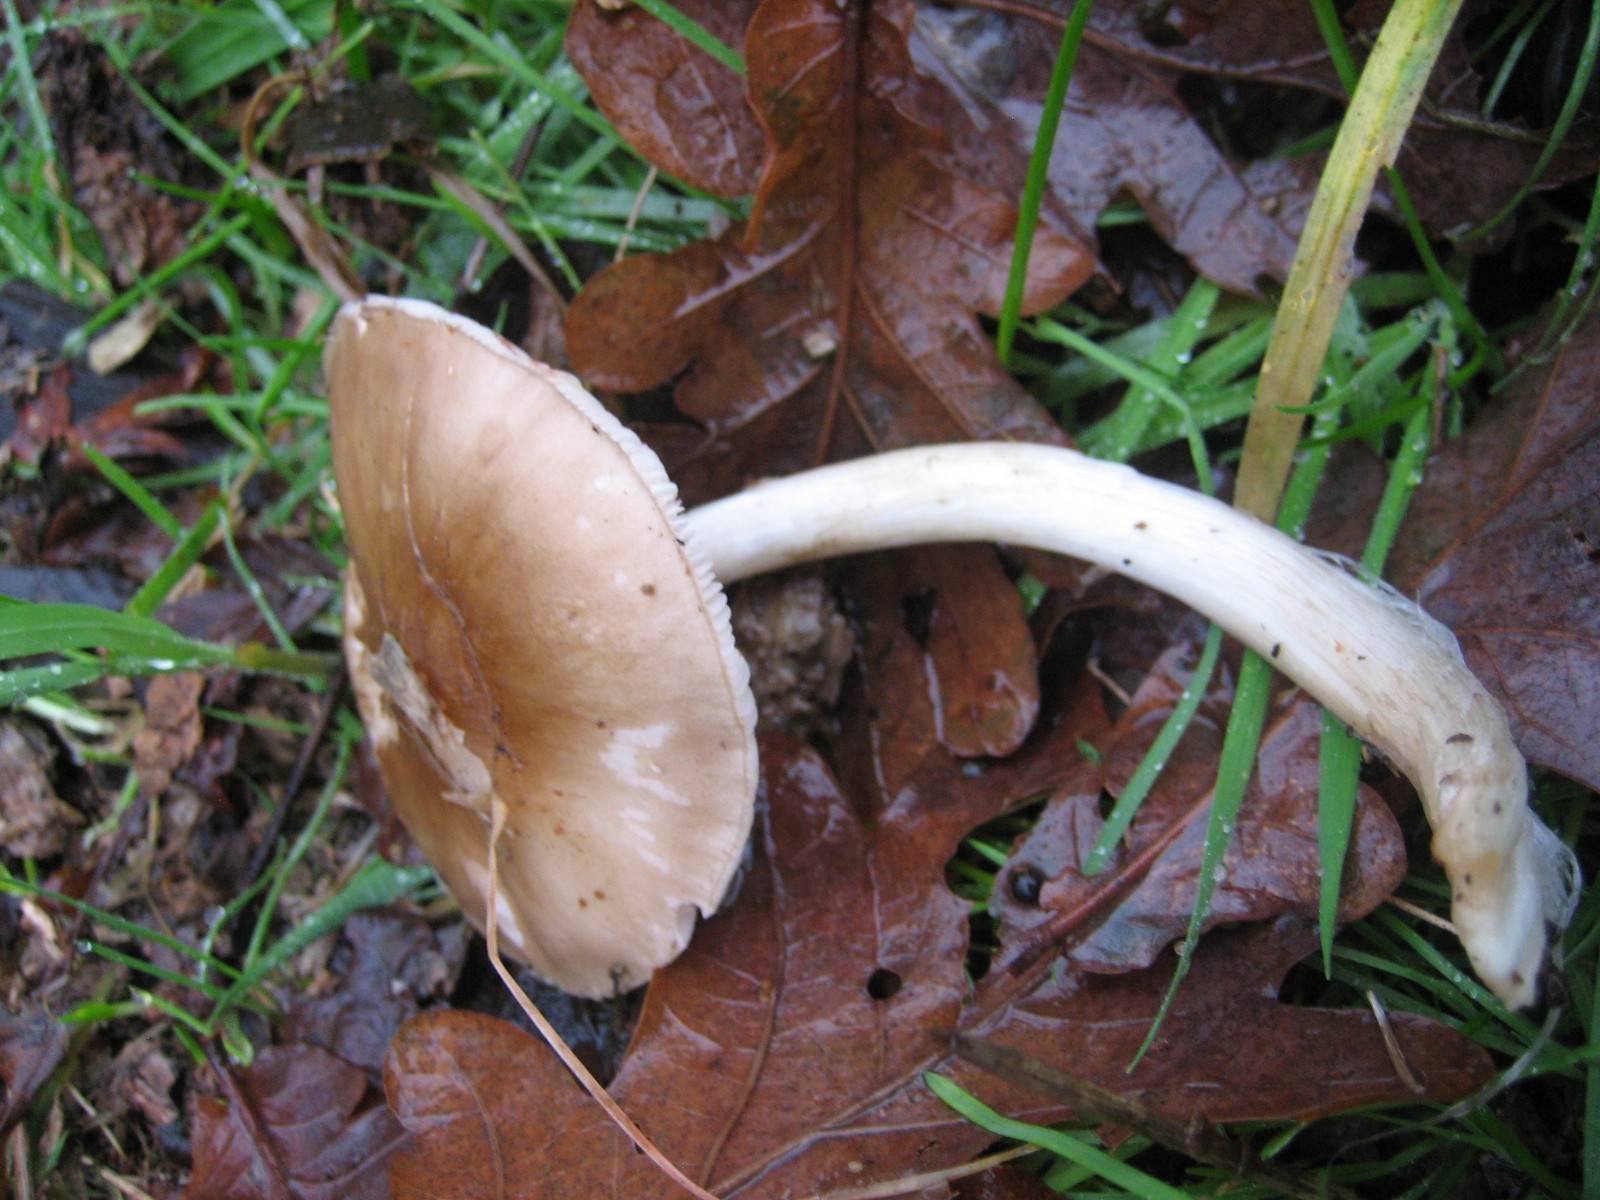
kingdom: Fungi
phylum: Basidiomycota
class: Agaricomycetes
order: Agaricales
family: Pluteaceae
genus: Pluteus
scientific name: Pluteus cervinus
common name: sodfarvet skærmhat
